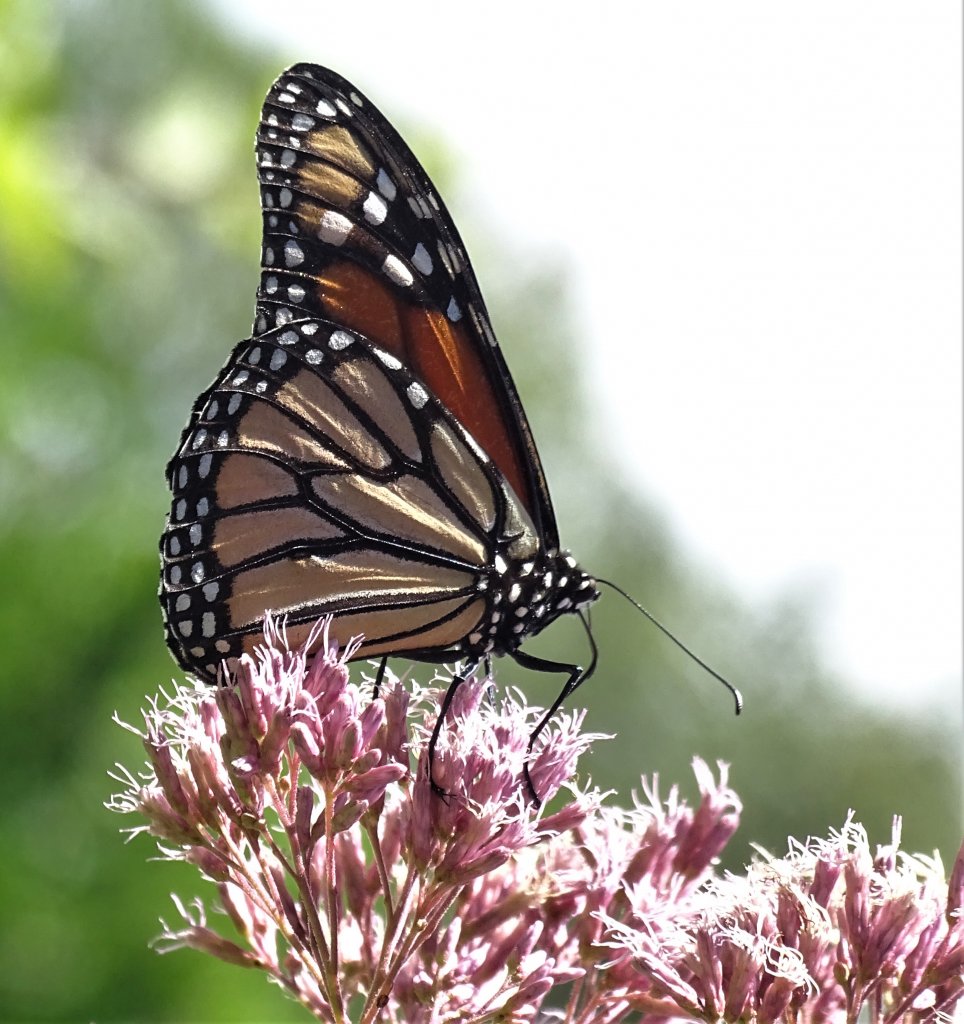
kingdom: Animalia
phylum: Arthropoda
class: Insecta
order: Lepidoptera
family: Nymphalidae
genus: Danaus
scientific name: Danaus plexippus
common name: Monarch
